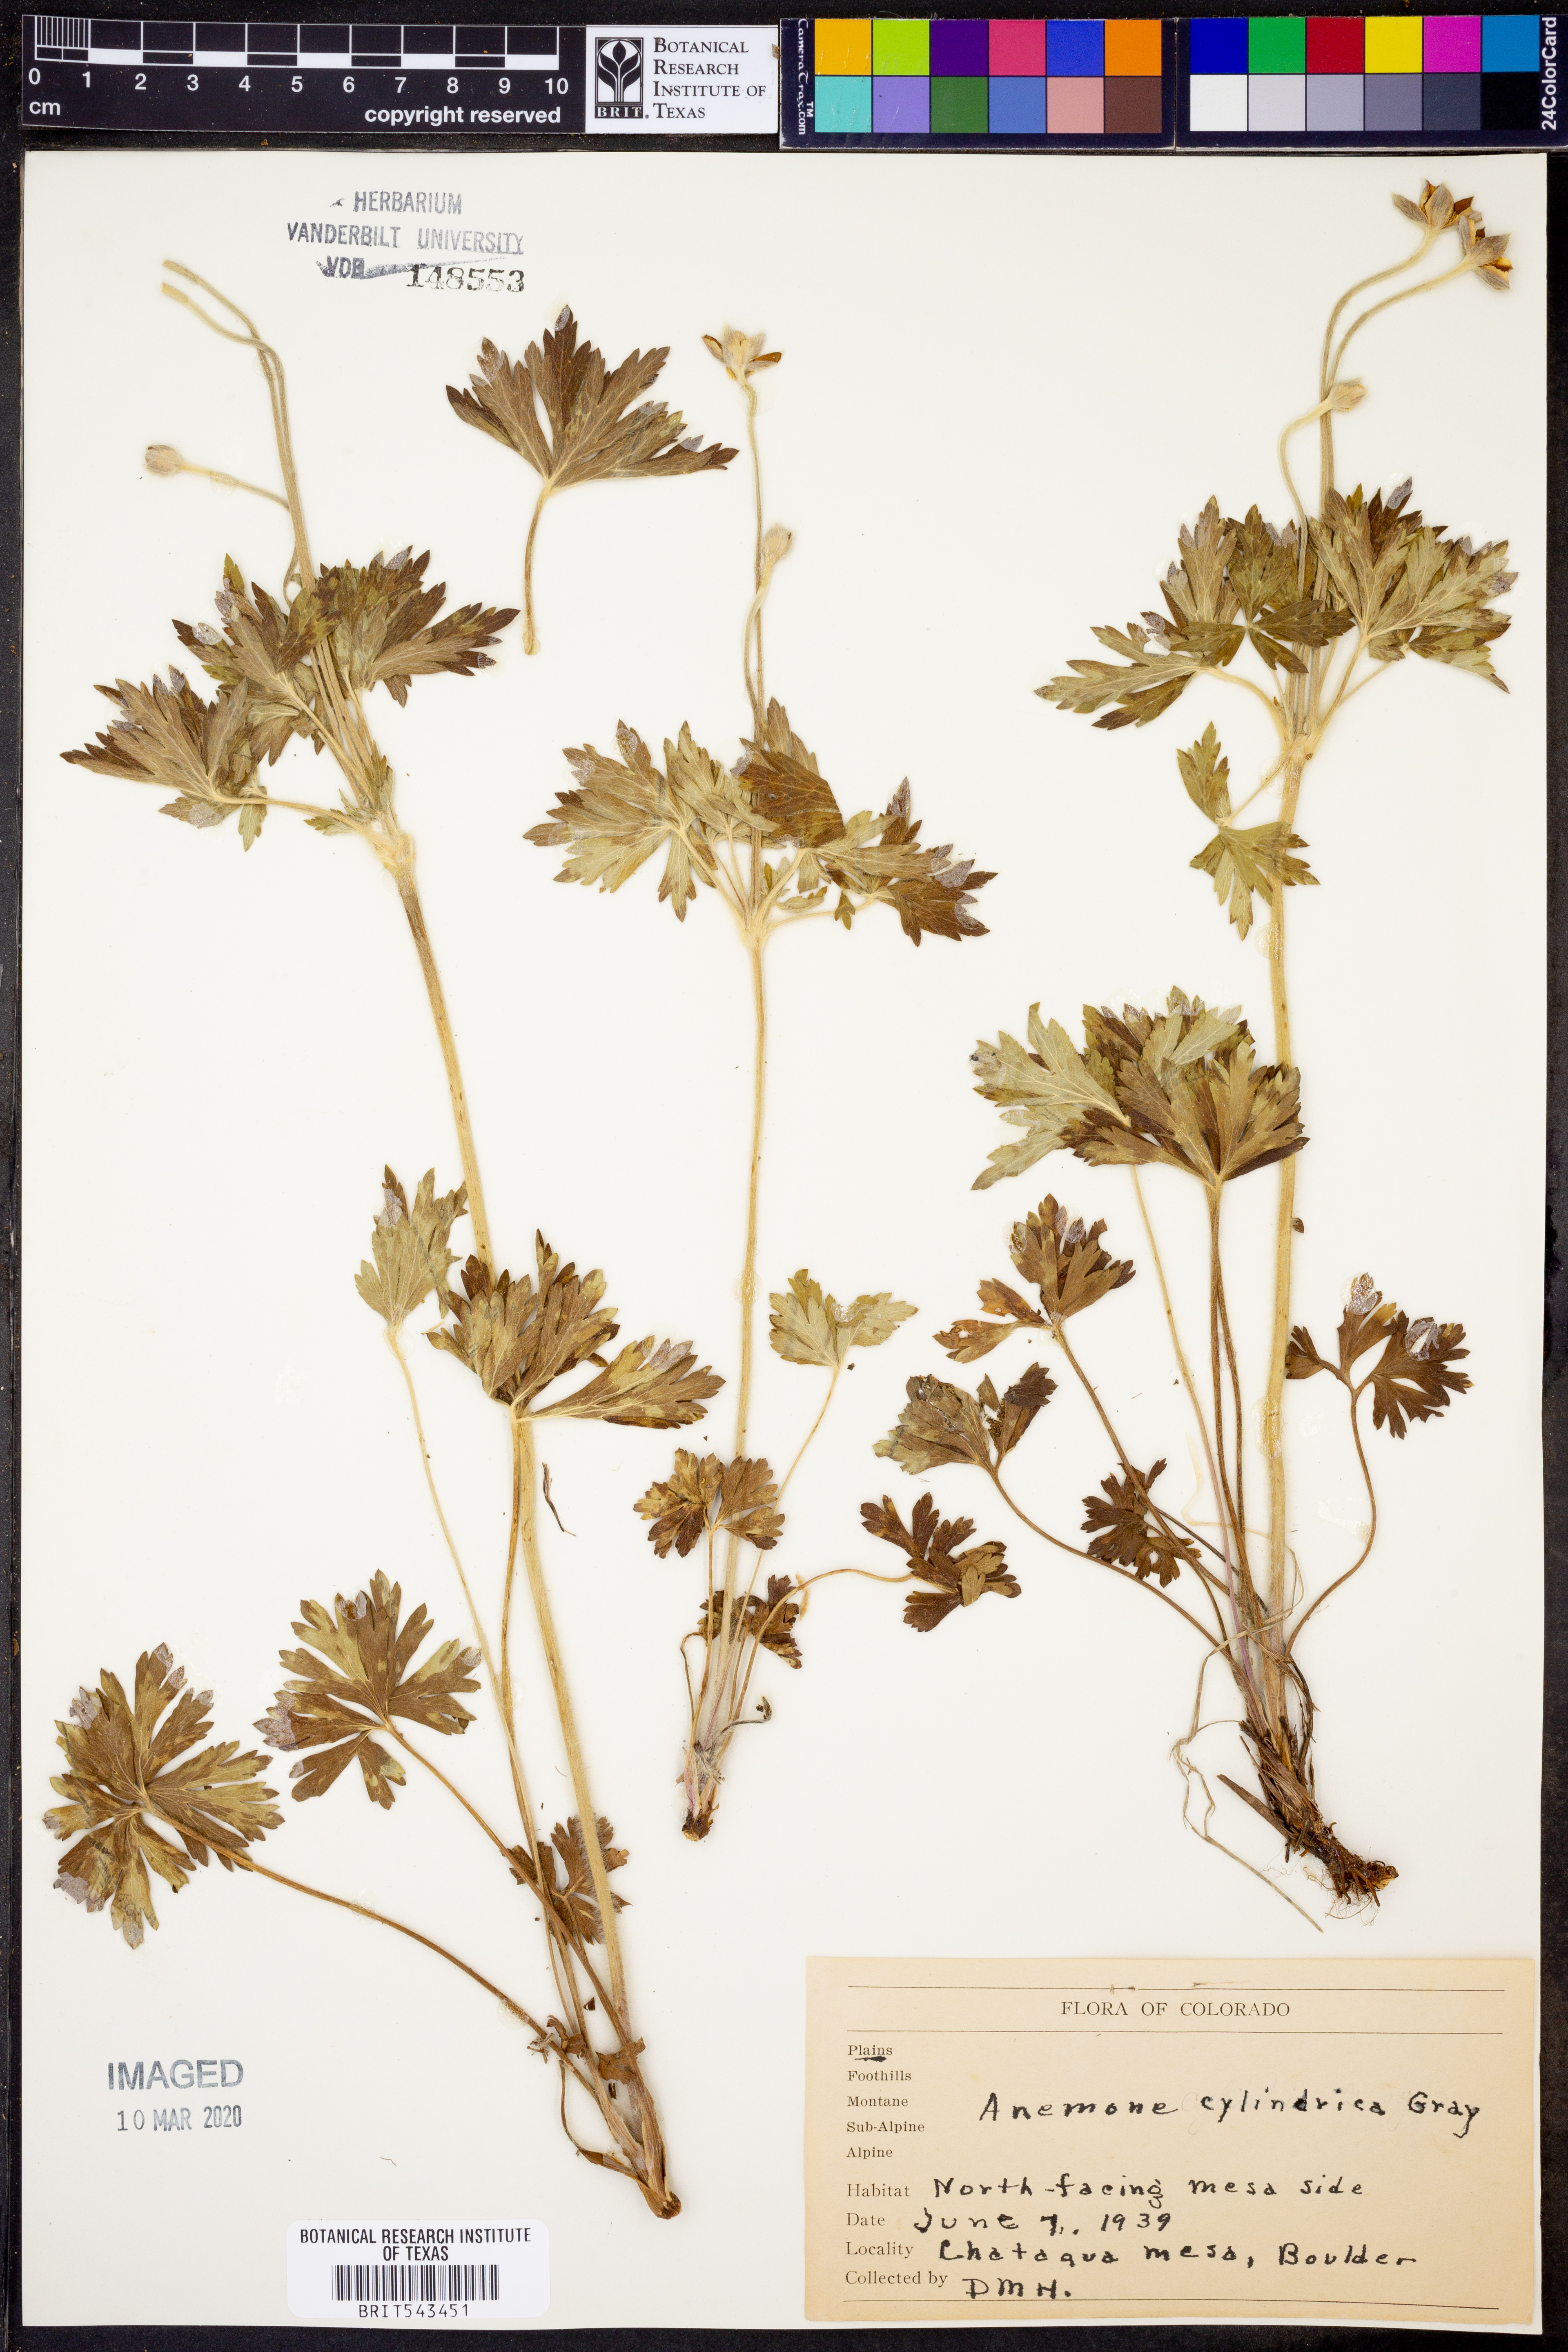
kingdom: Plantae
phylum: Tracheophyta
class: Magnoliopsida
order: Ranunculales
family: Ranunculaceae
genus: Anemone
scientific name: Anemone cylindrica
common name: Candle anemone
